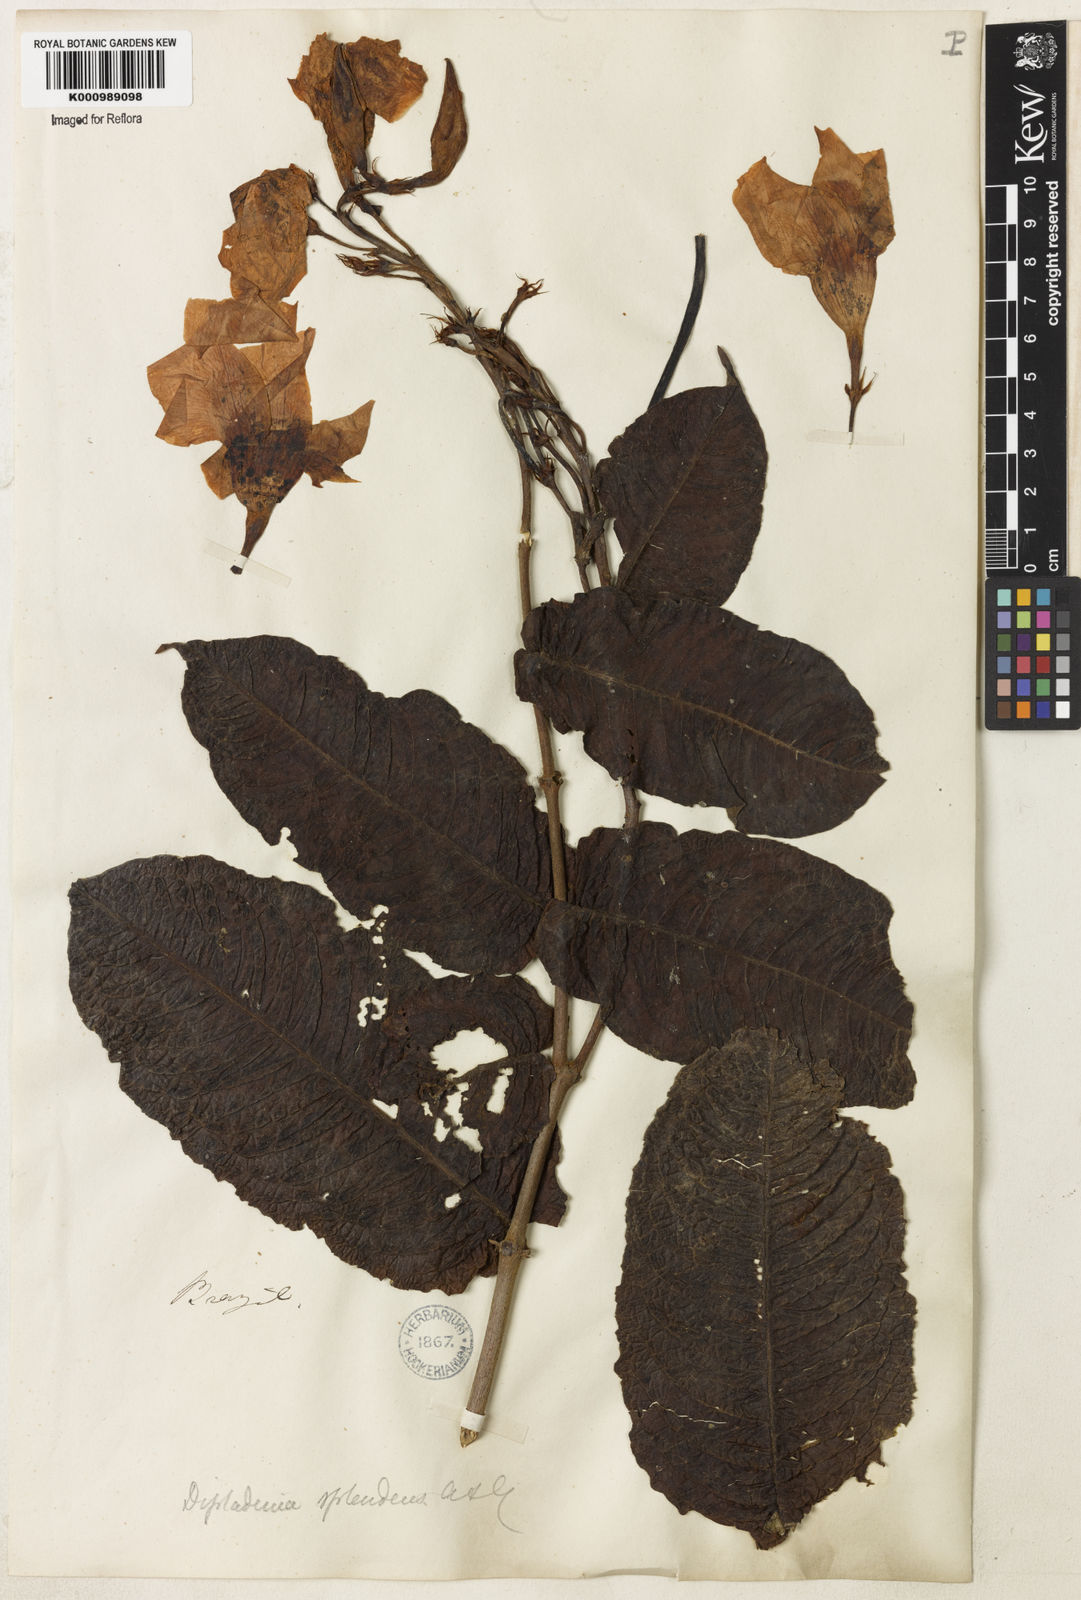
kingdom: Plantae
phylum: Tracheophyta
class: Magnoliopsida
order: Gentianales
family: Apocynaceae
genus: Mandevilla
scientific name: Mandevilla splendens
